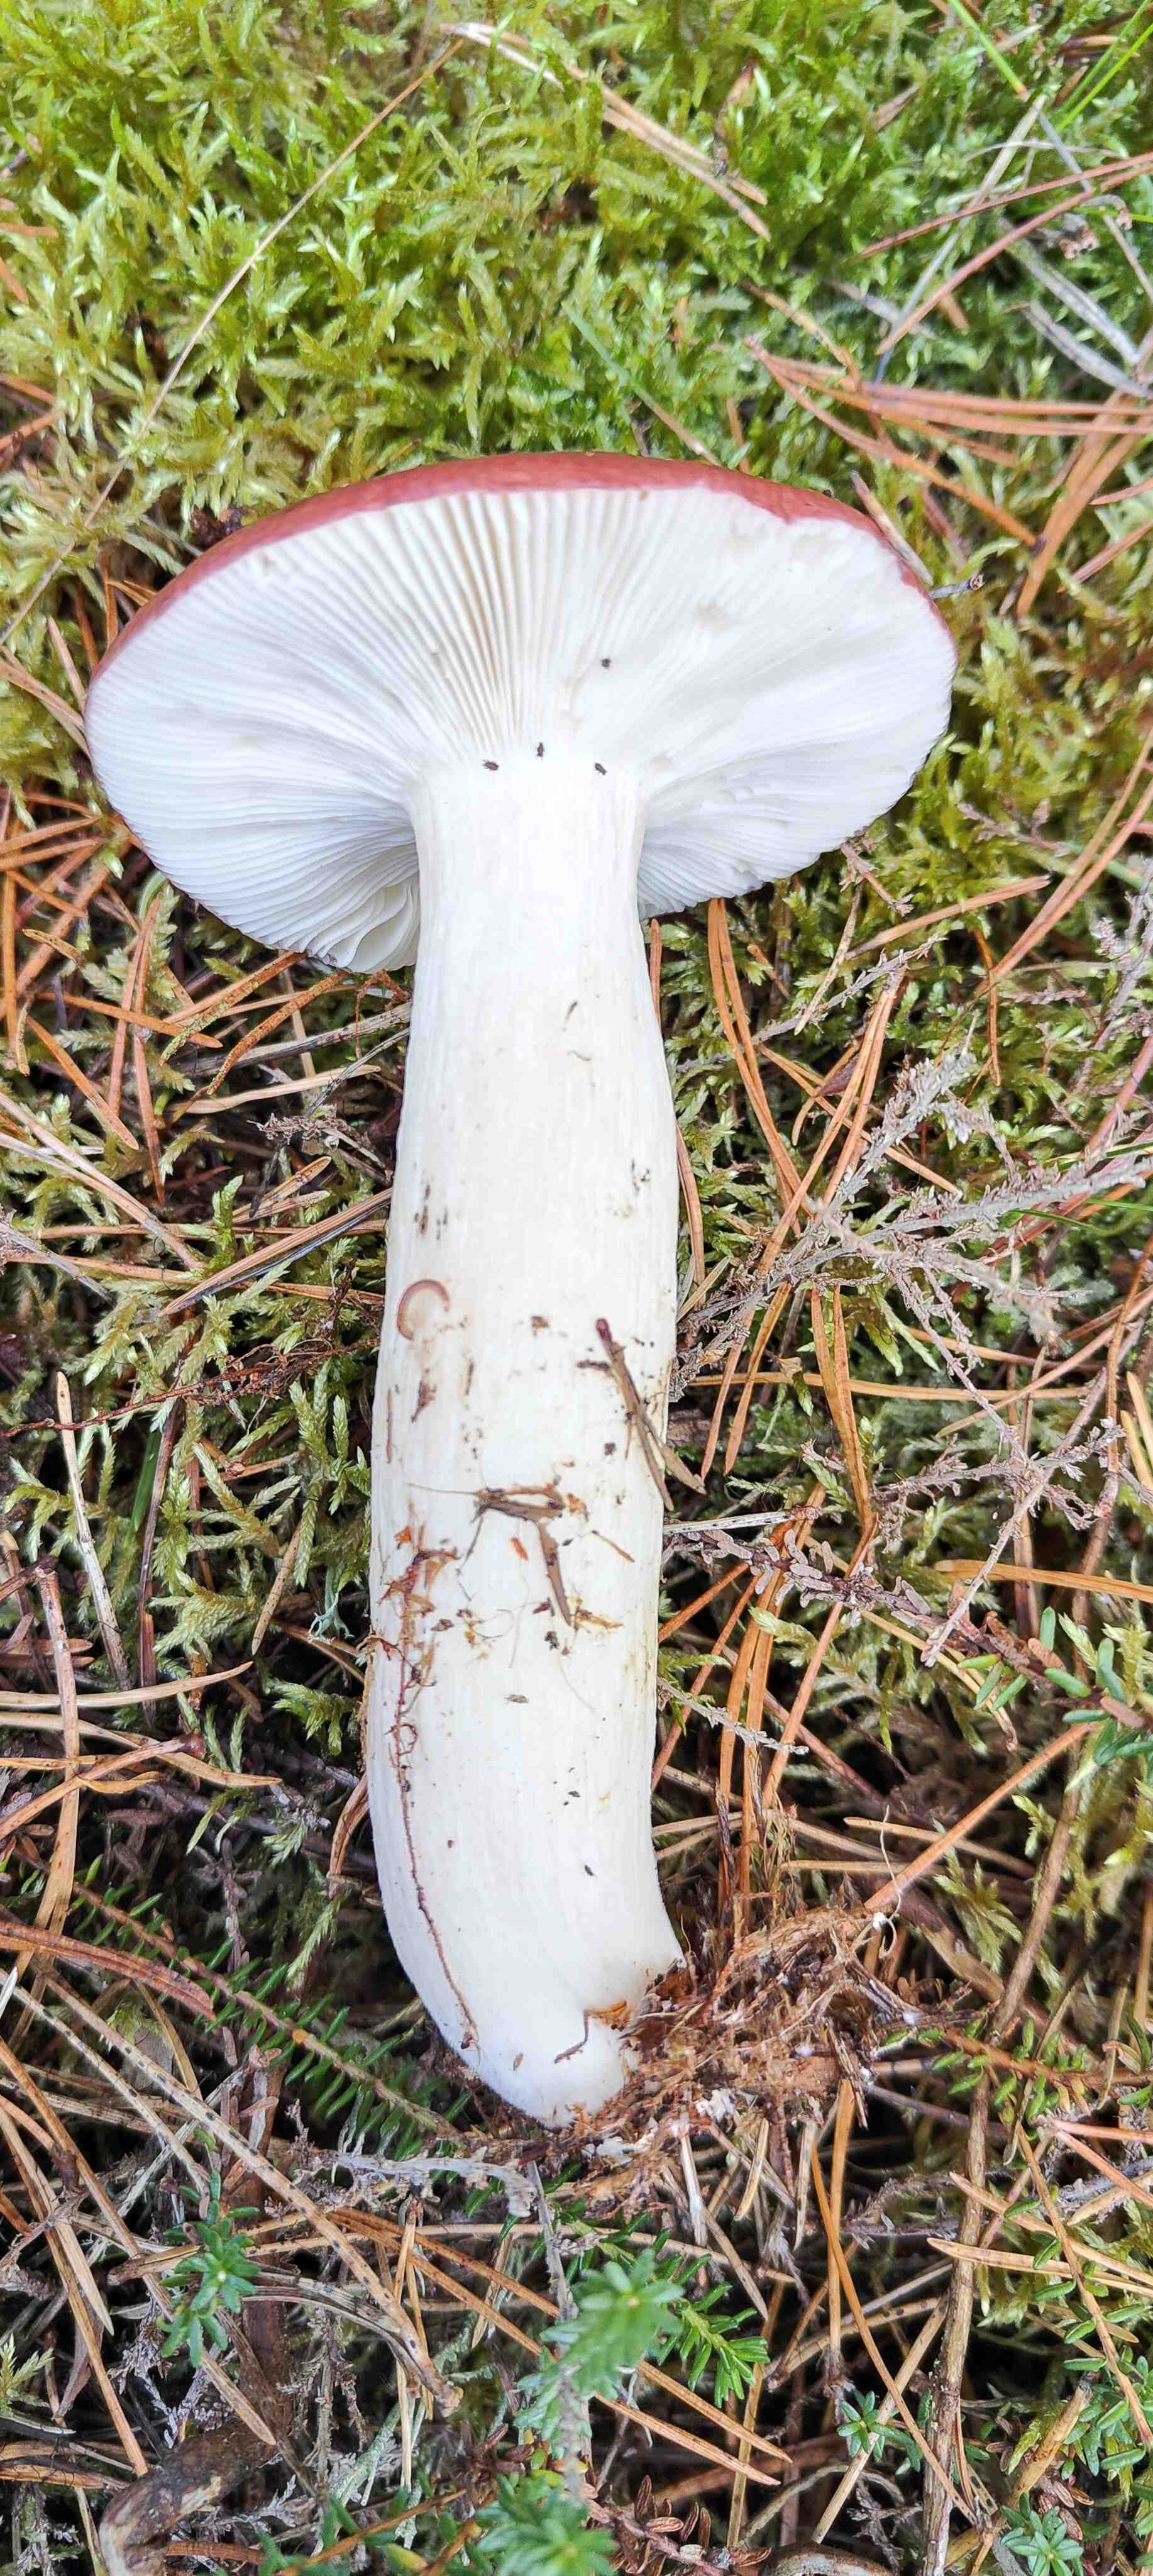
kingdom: Fungi
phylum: Basidiomycota
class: Agaricomycetes
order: Russulales
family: Russulaceae
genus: Russula
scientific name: Russula paludosa
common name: prægtig skørhat
